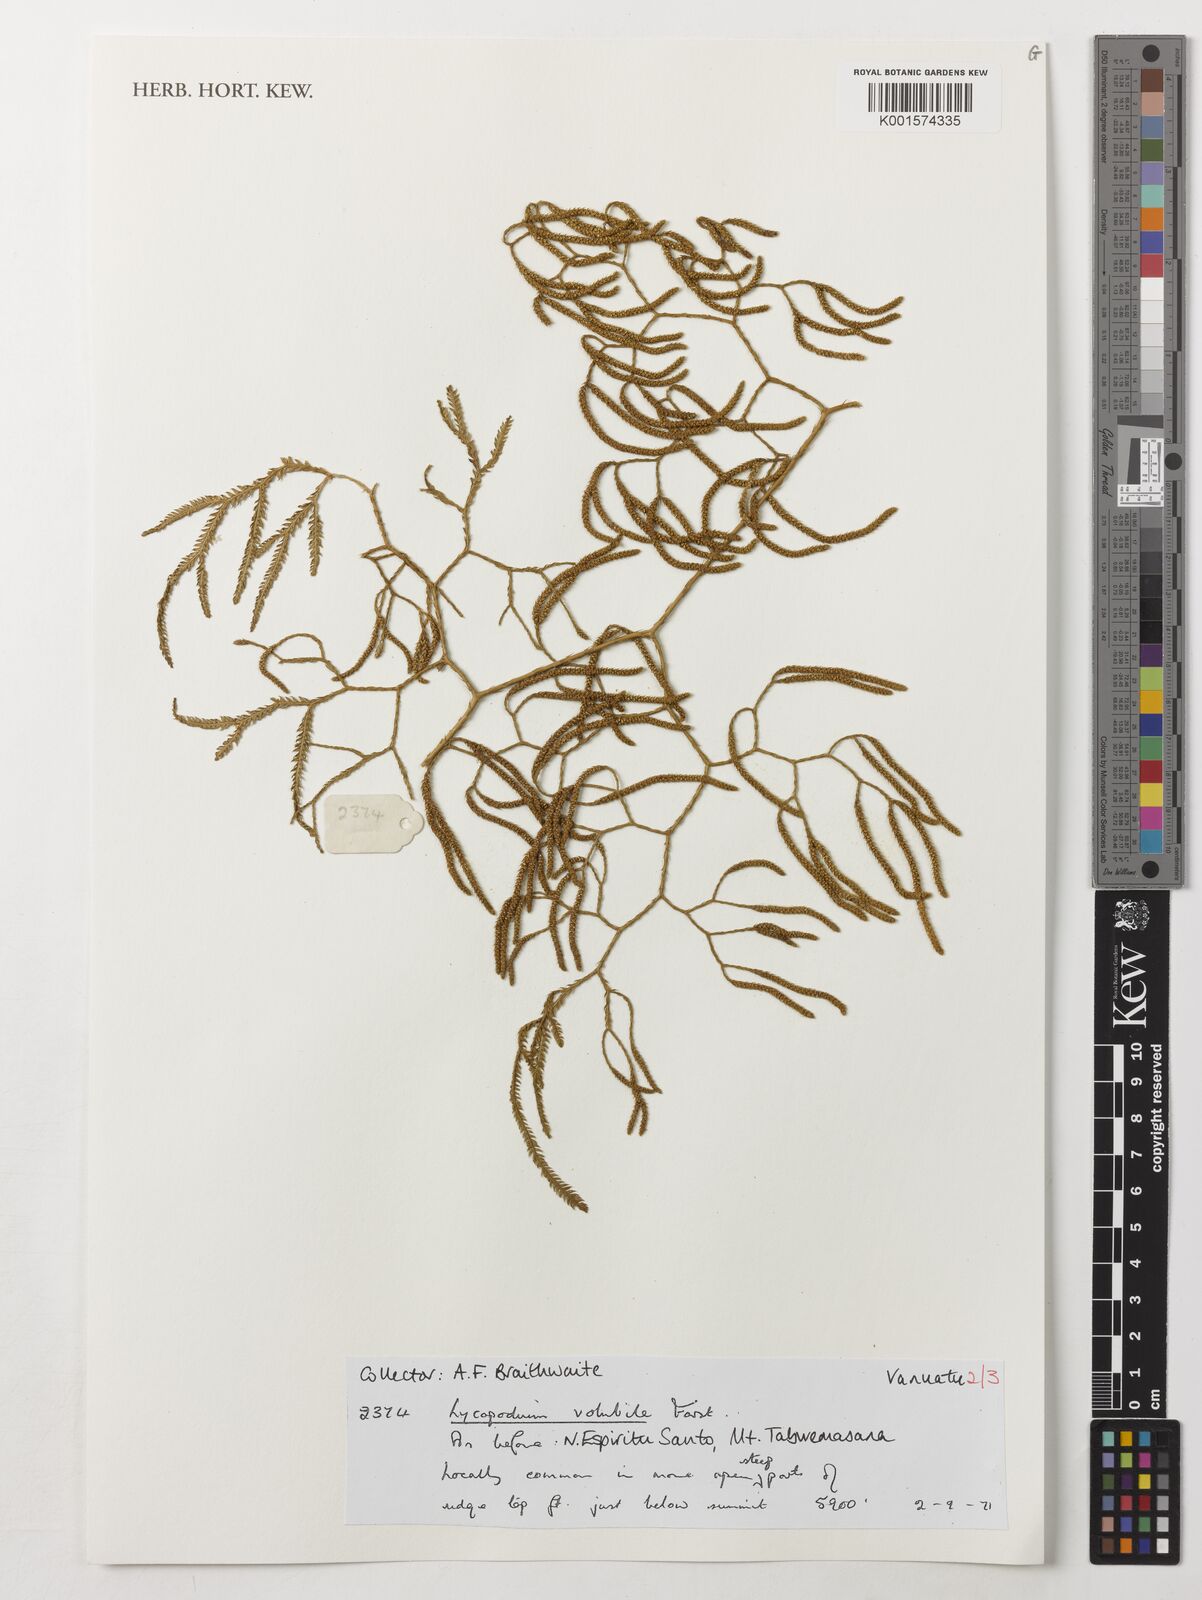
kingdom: Plantae
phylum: Tracheophyta
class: Lycopodiopsida
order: Lycopodiales
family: Lycopodiaceae
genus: Pseudodiphasium
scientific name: Pseudodiphasium volubile
